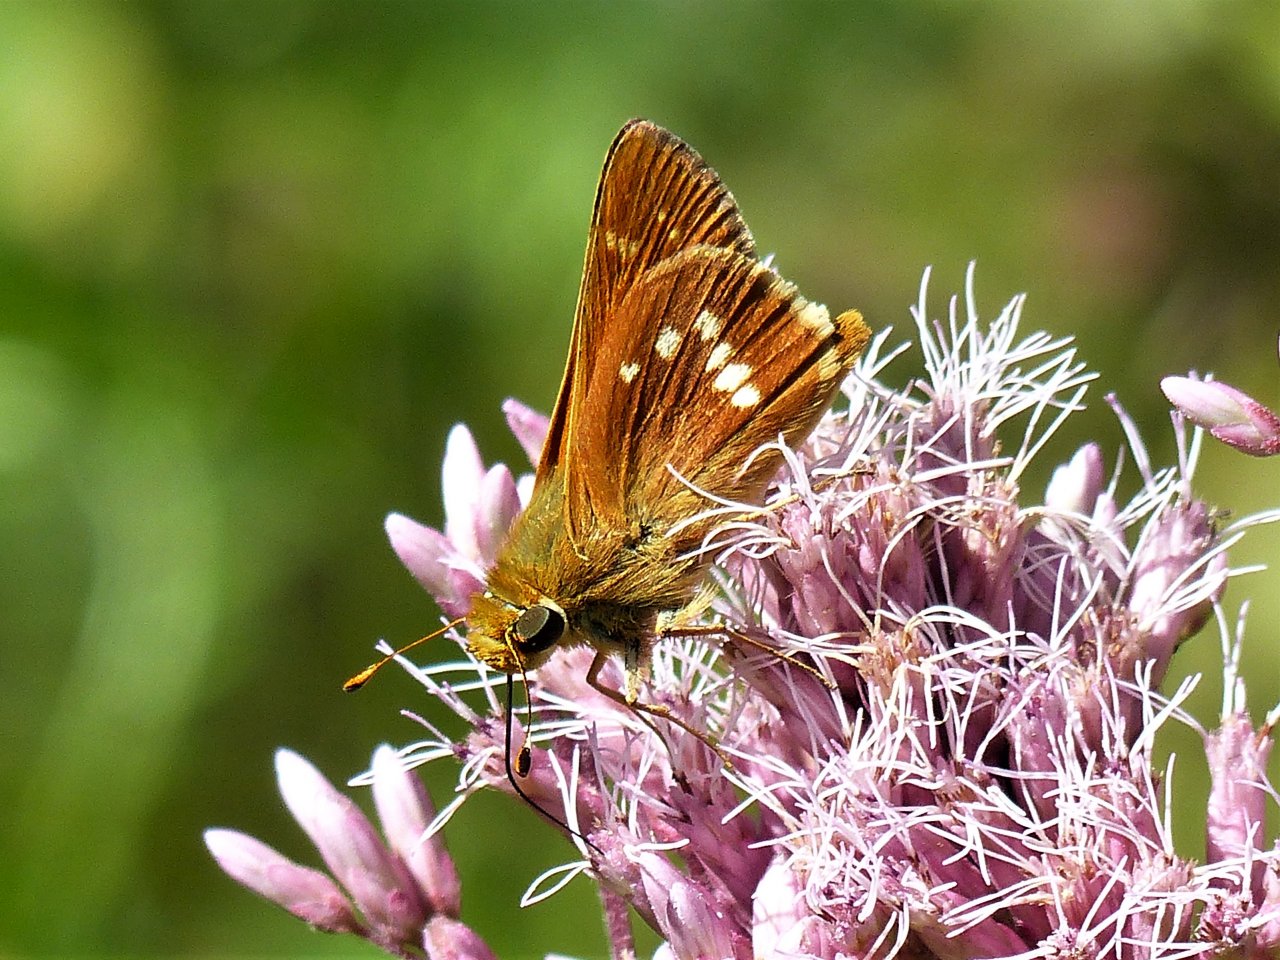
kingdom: Animalia
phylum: Arthropoda
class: Insecta
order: Lepidoptera
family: Hesperiidae
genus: Hesperia
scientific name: Hesperia leonardus
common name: Leonard's Skipper
